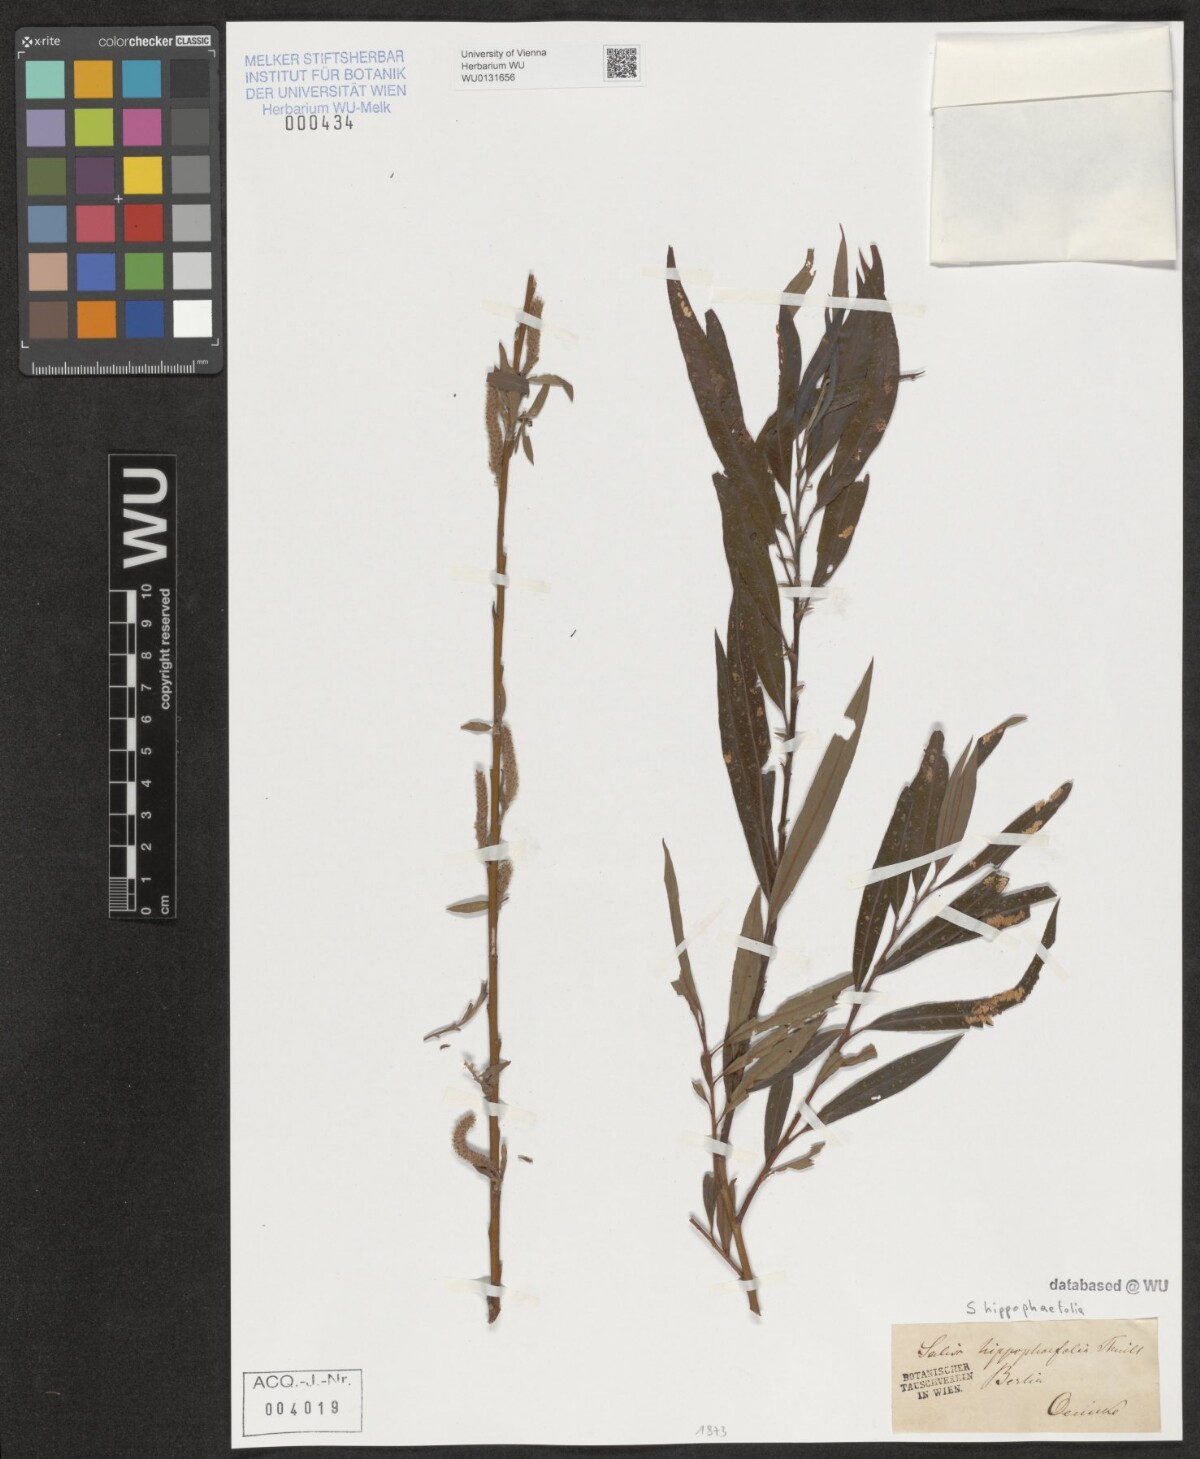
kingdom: Plantae
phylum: Tracheophyta
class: Magnoliopsida
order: Malpighiales
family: Salicaceae
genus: Salix
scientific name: Salix mollissima
